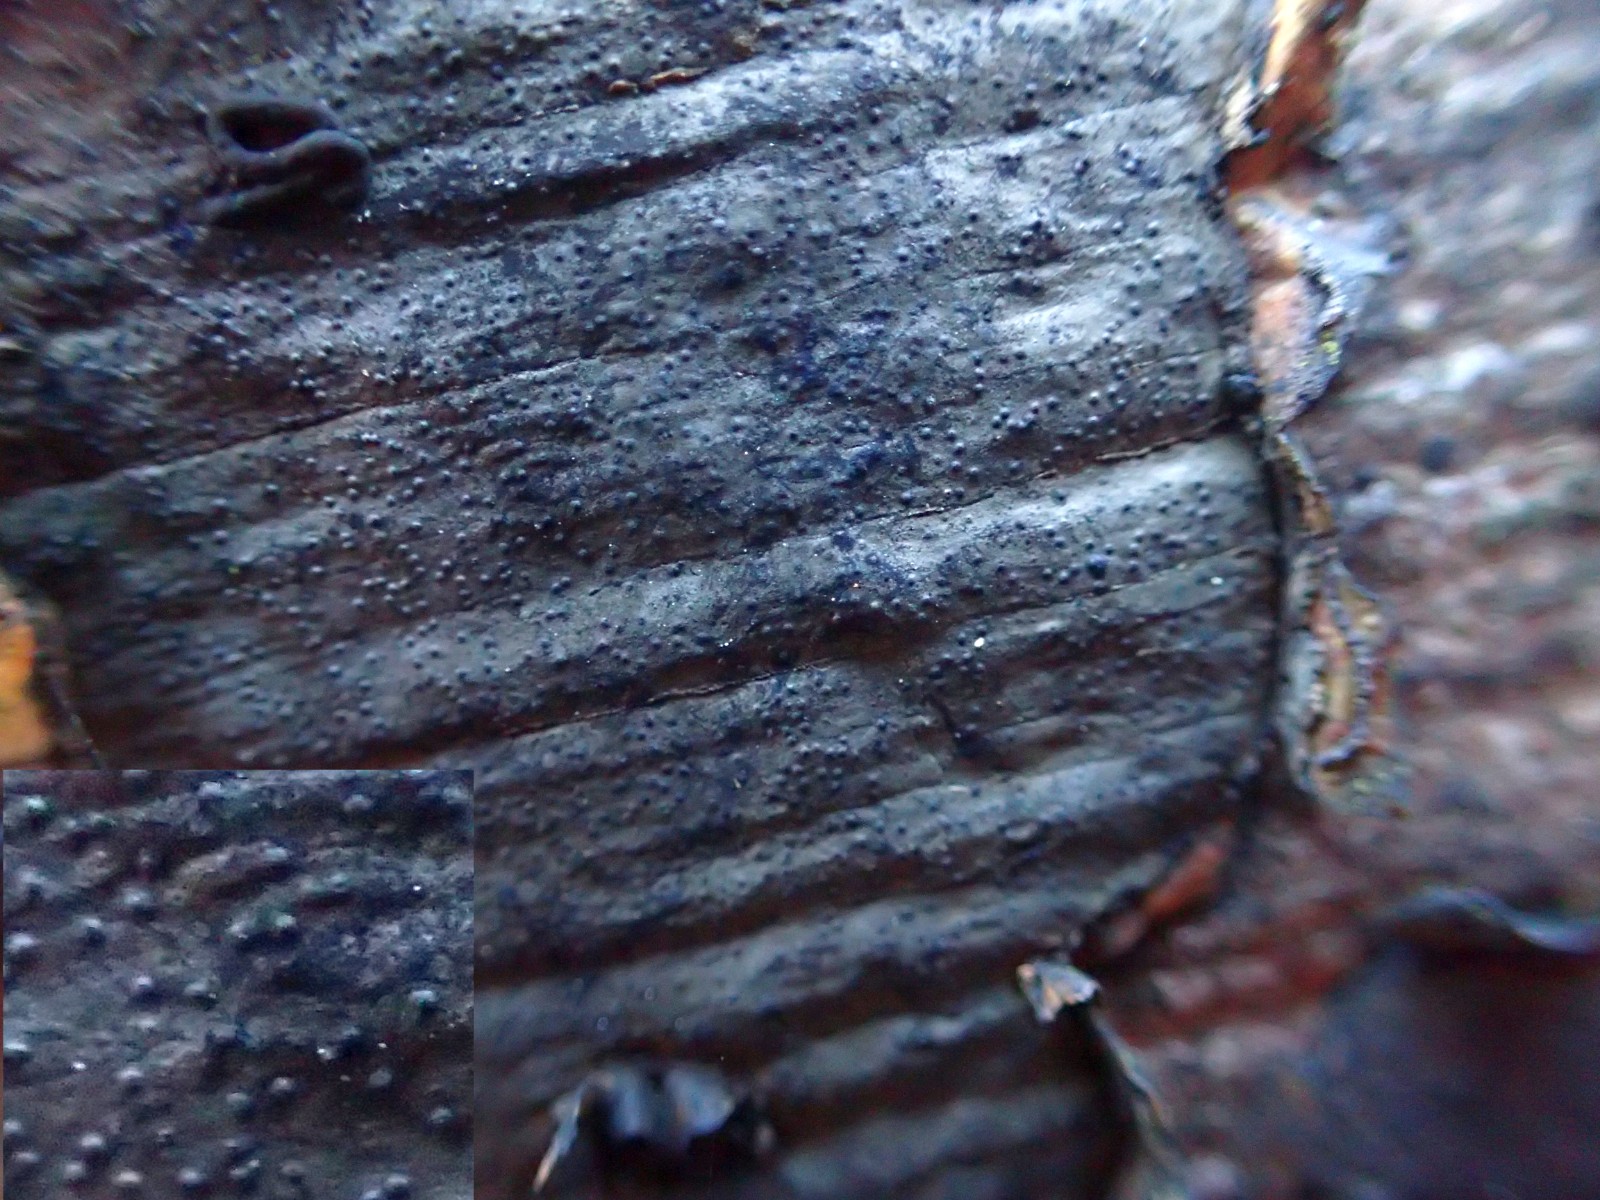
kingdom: Fungi
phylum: Ascomycota
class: Sordariomycetes
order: Xylariales
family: Graphostromataceae
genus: Biscogniauxia
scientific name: Biscogniauxia nummularia
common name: bøge-kulskive
